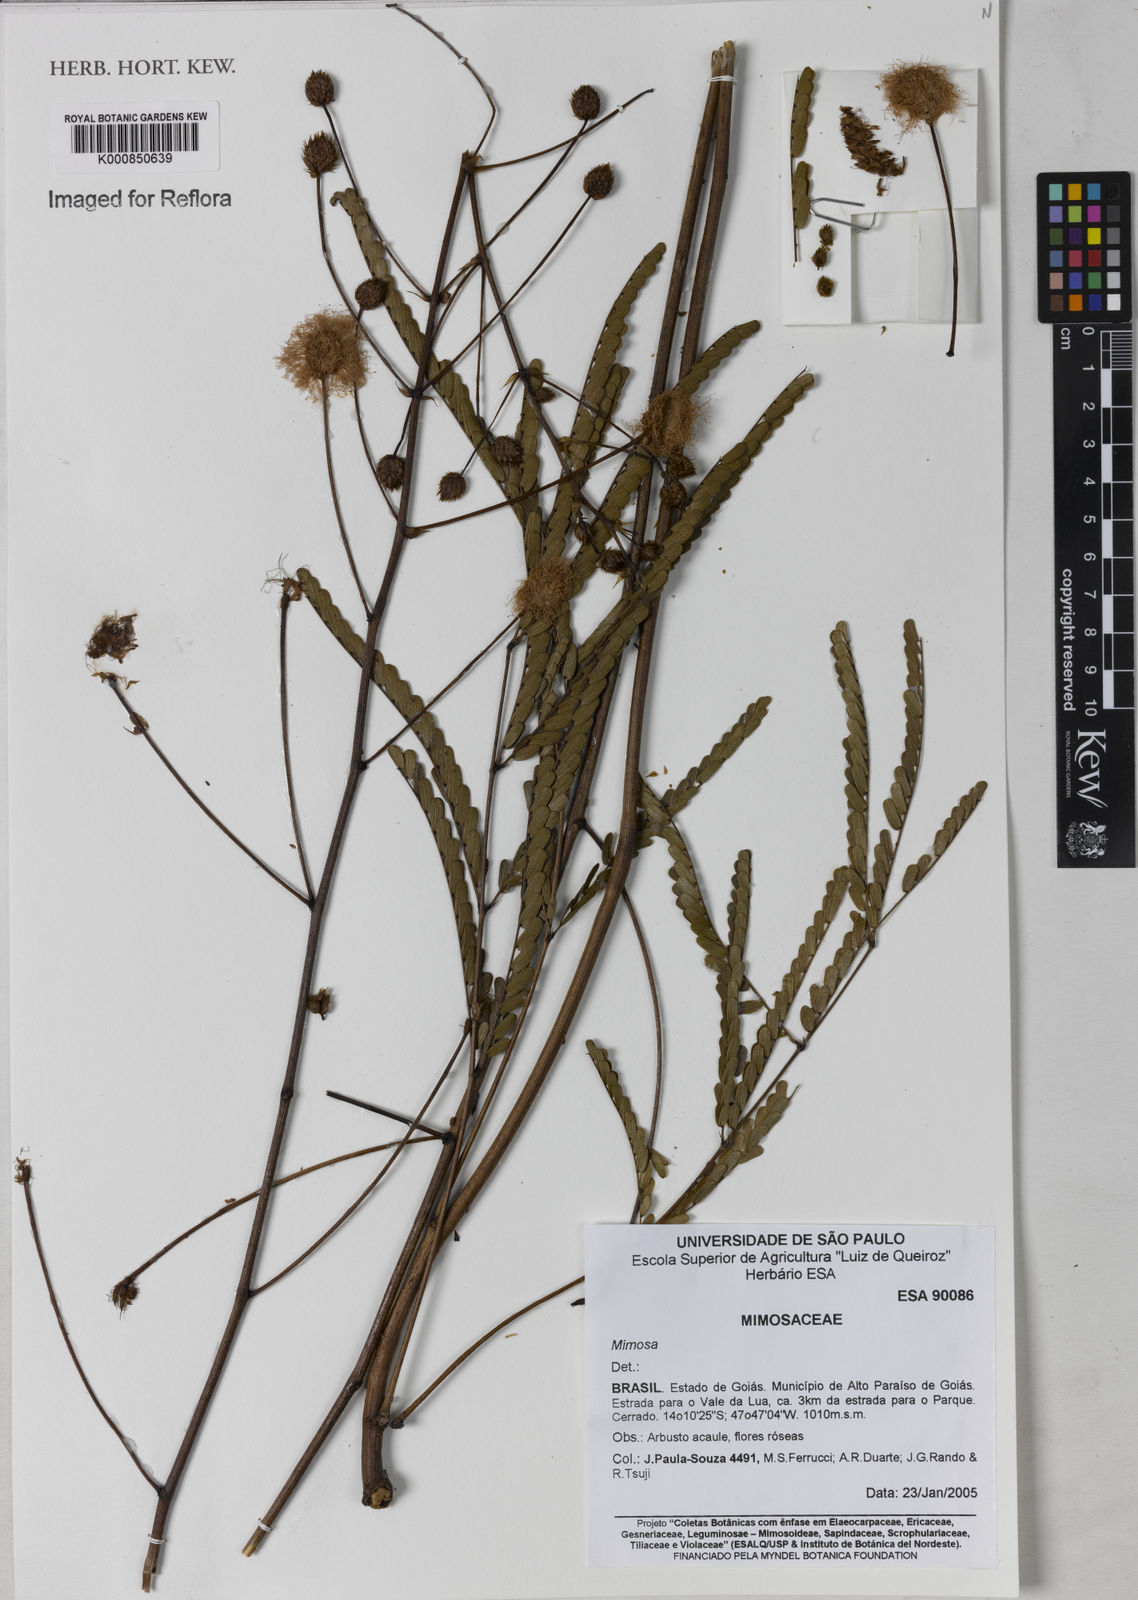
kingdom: Plantae
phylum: Tracheophyta
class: Magnoliopsida
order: Fabales
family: Fabaceae
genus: Mimosa
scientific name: Mimosa ulei
